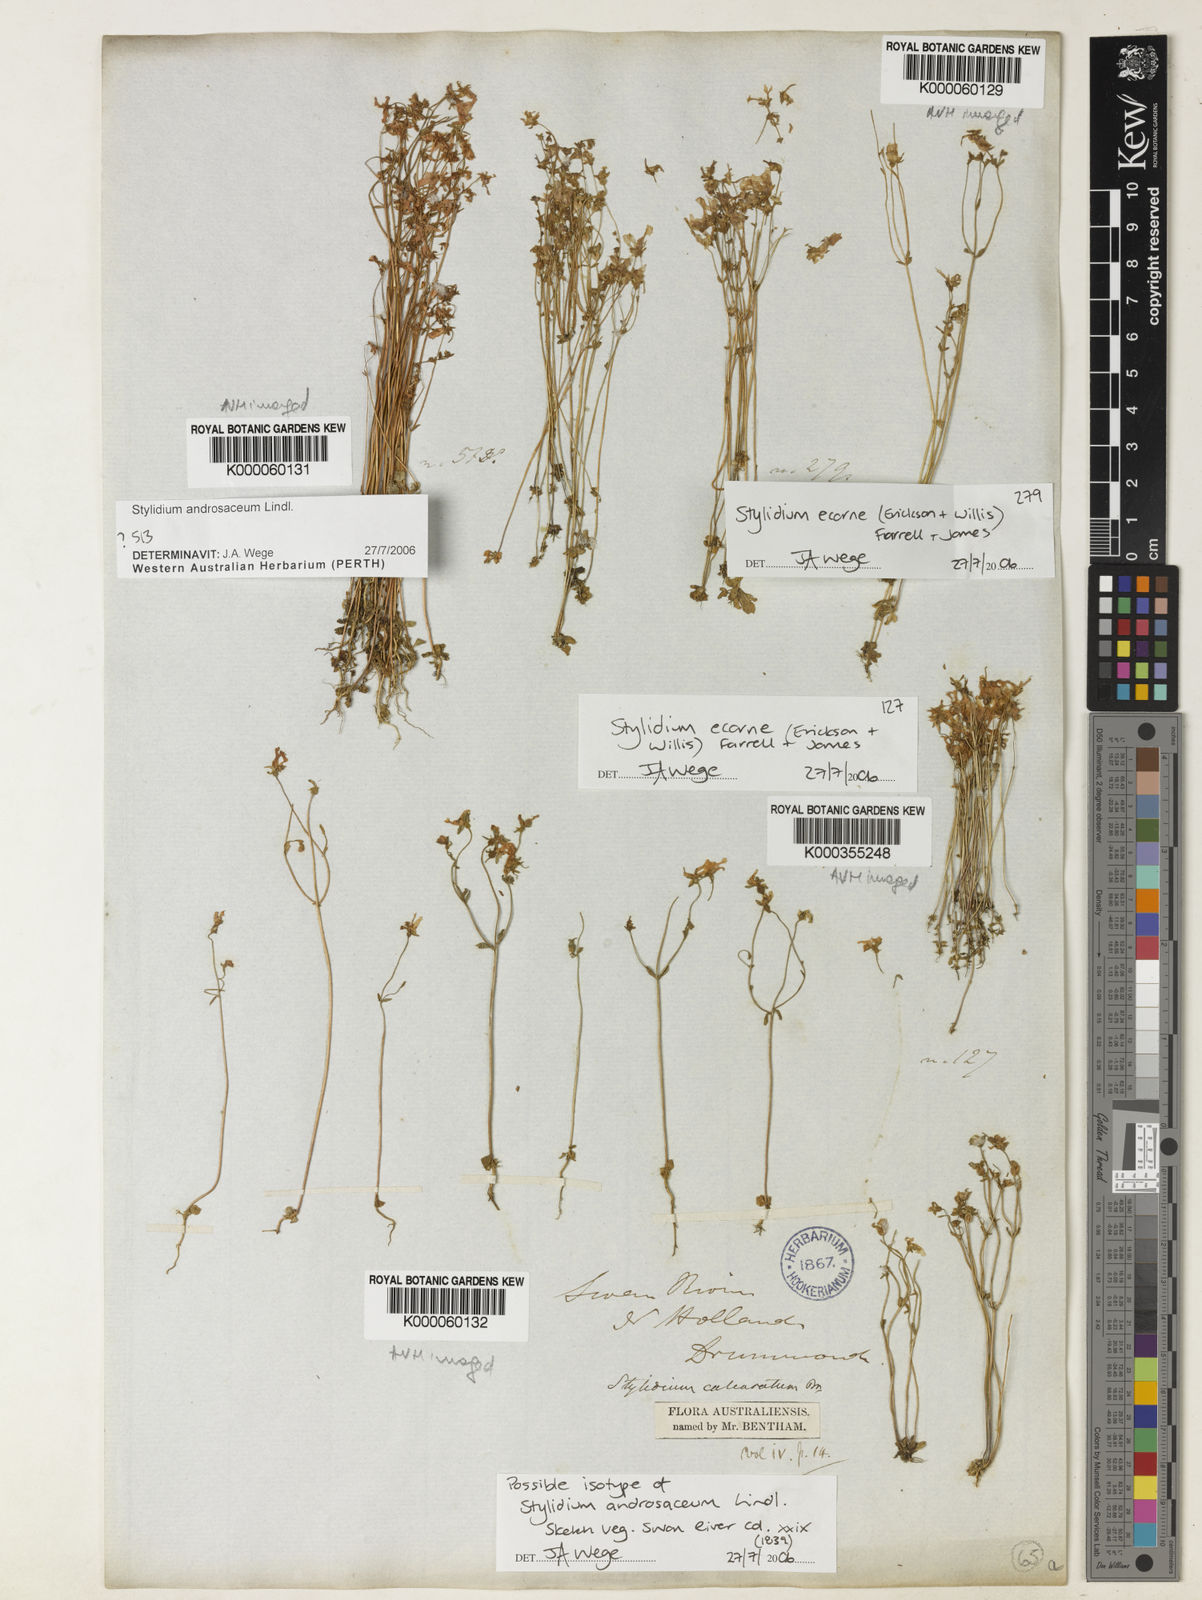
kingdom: Plantae
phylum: Tracheophyta
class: Magnoliopsida
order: Asterales
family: Stylidiaceae
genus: Stylidium
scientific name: Stylidium androsaceum
